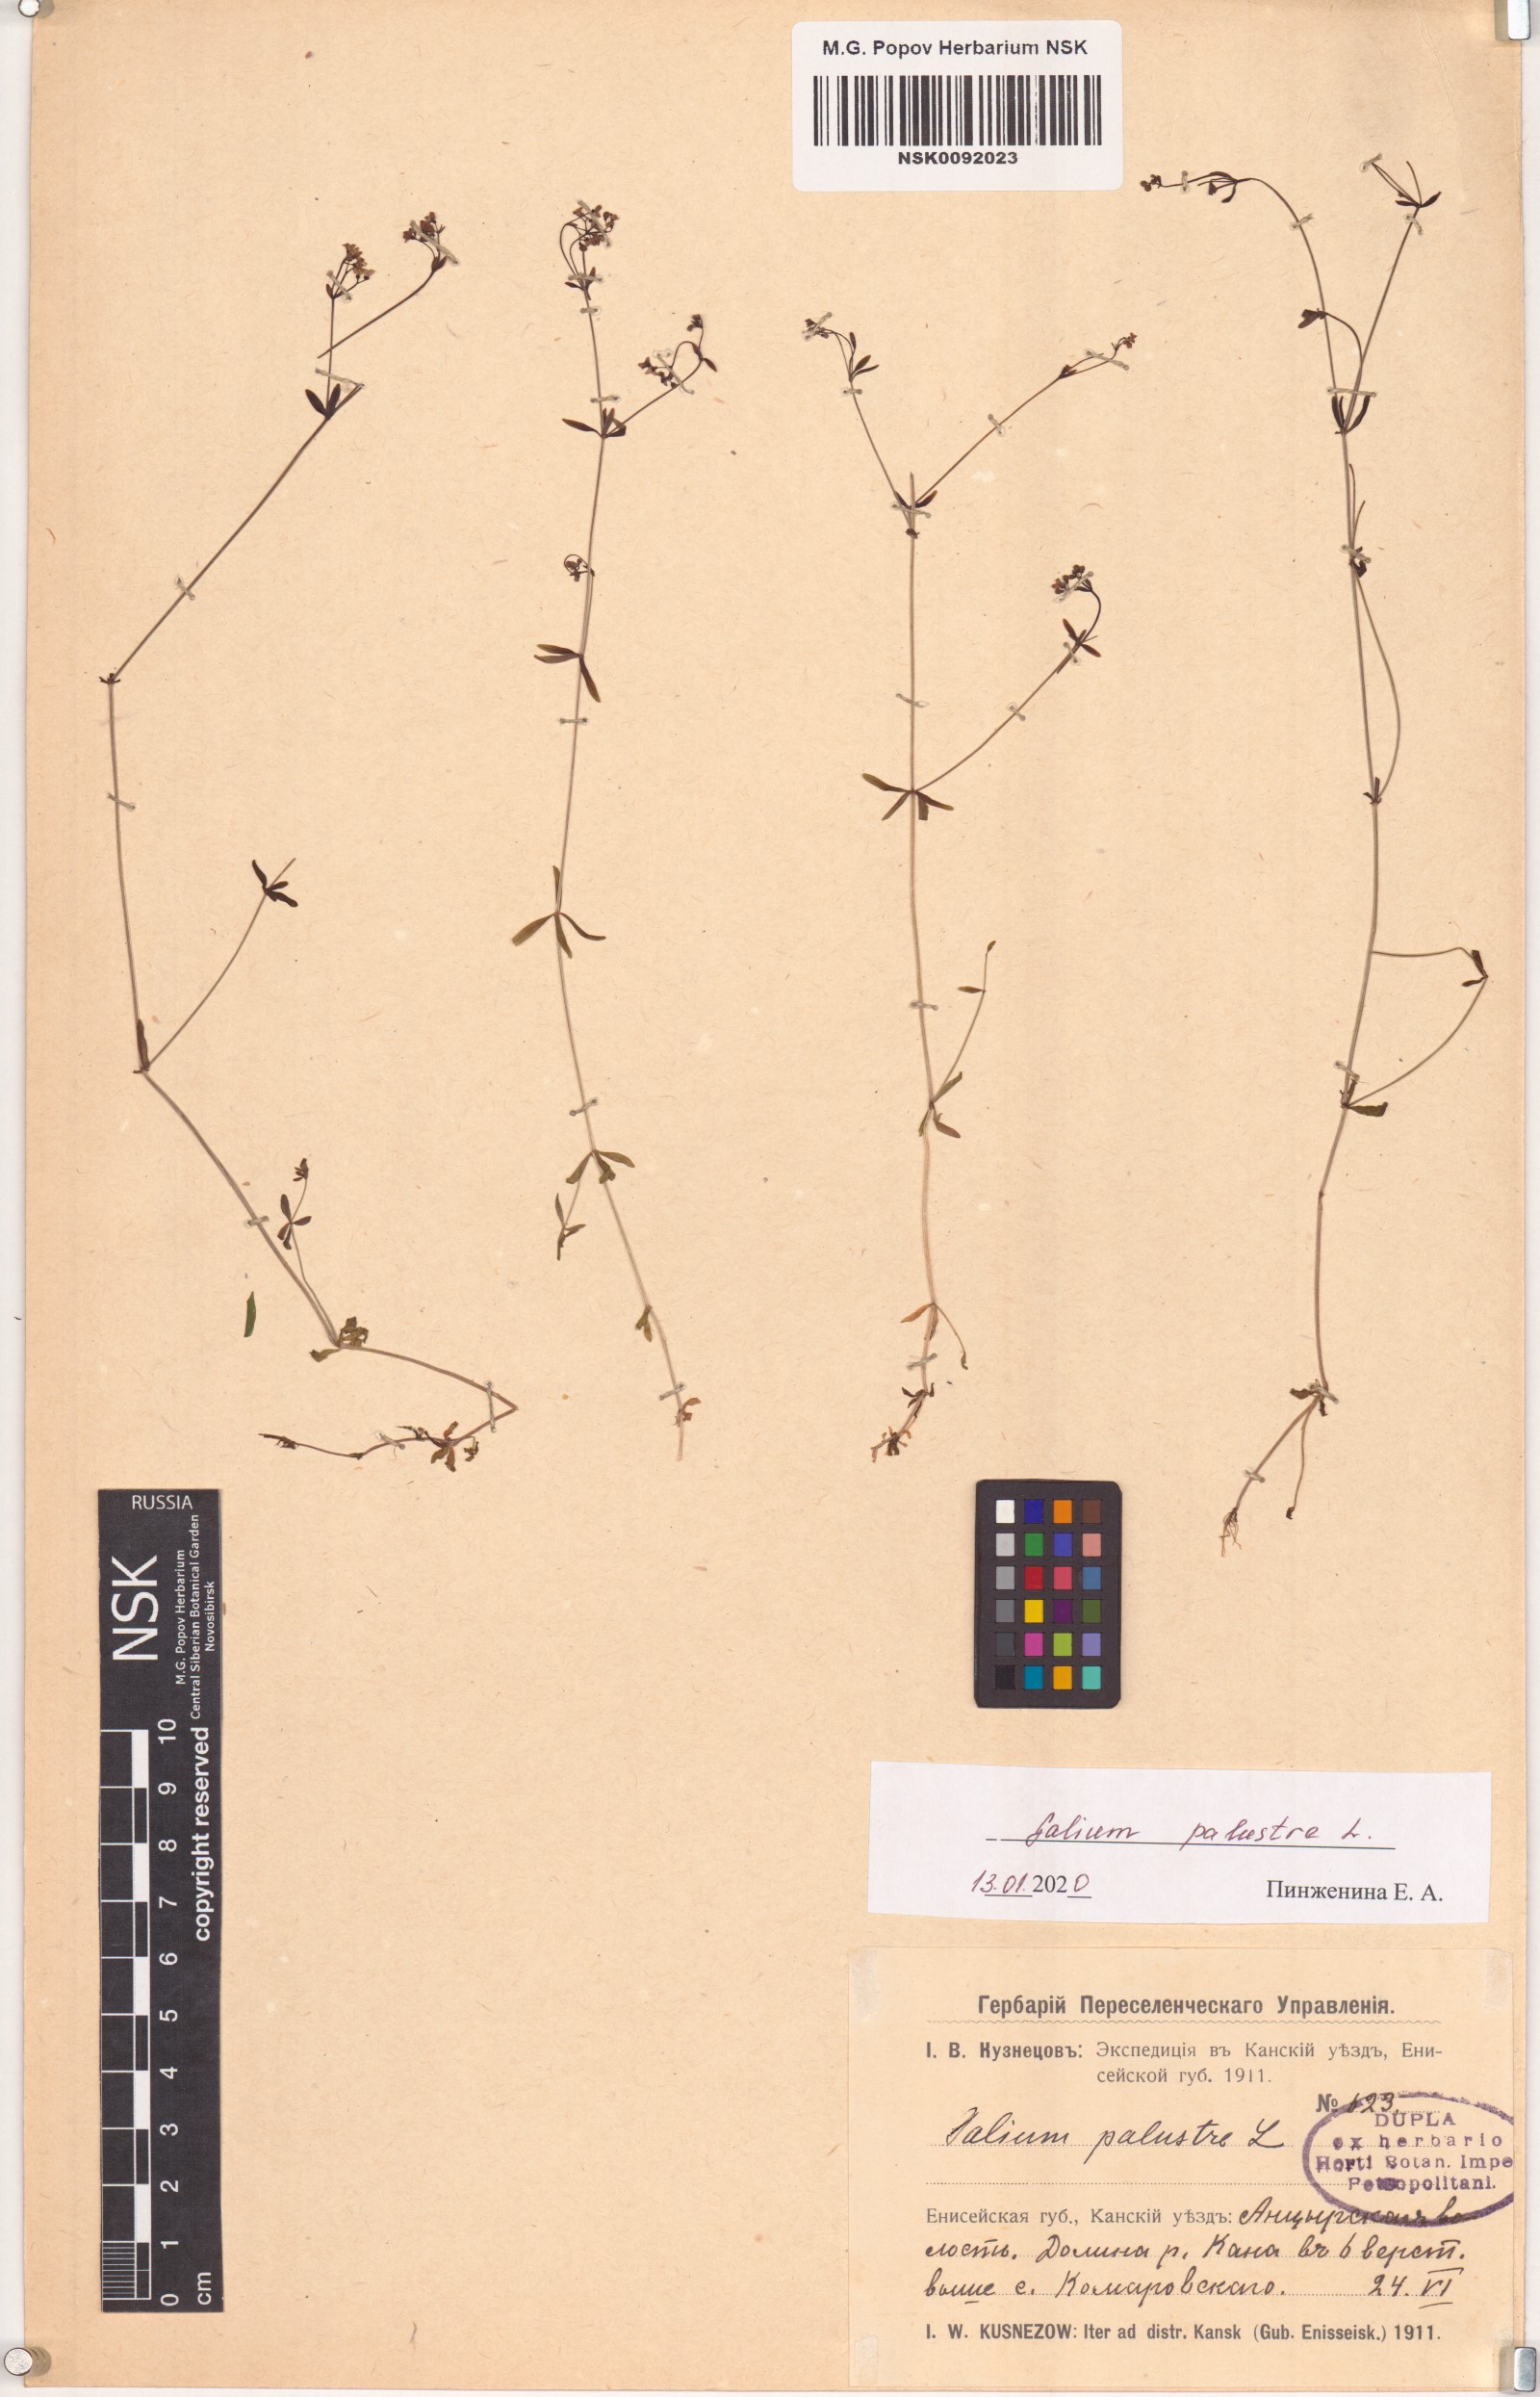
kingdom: Plantae
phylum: Tracheophyta
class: Magnoliopsida
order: Gentianales
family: Rubiaceae
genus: Galium
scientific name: Galium palustre
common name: Common marsh-bedstraw
